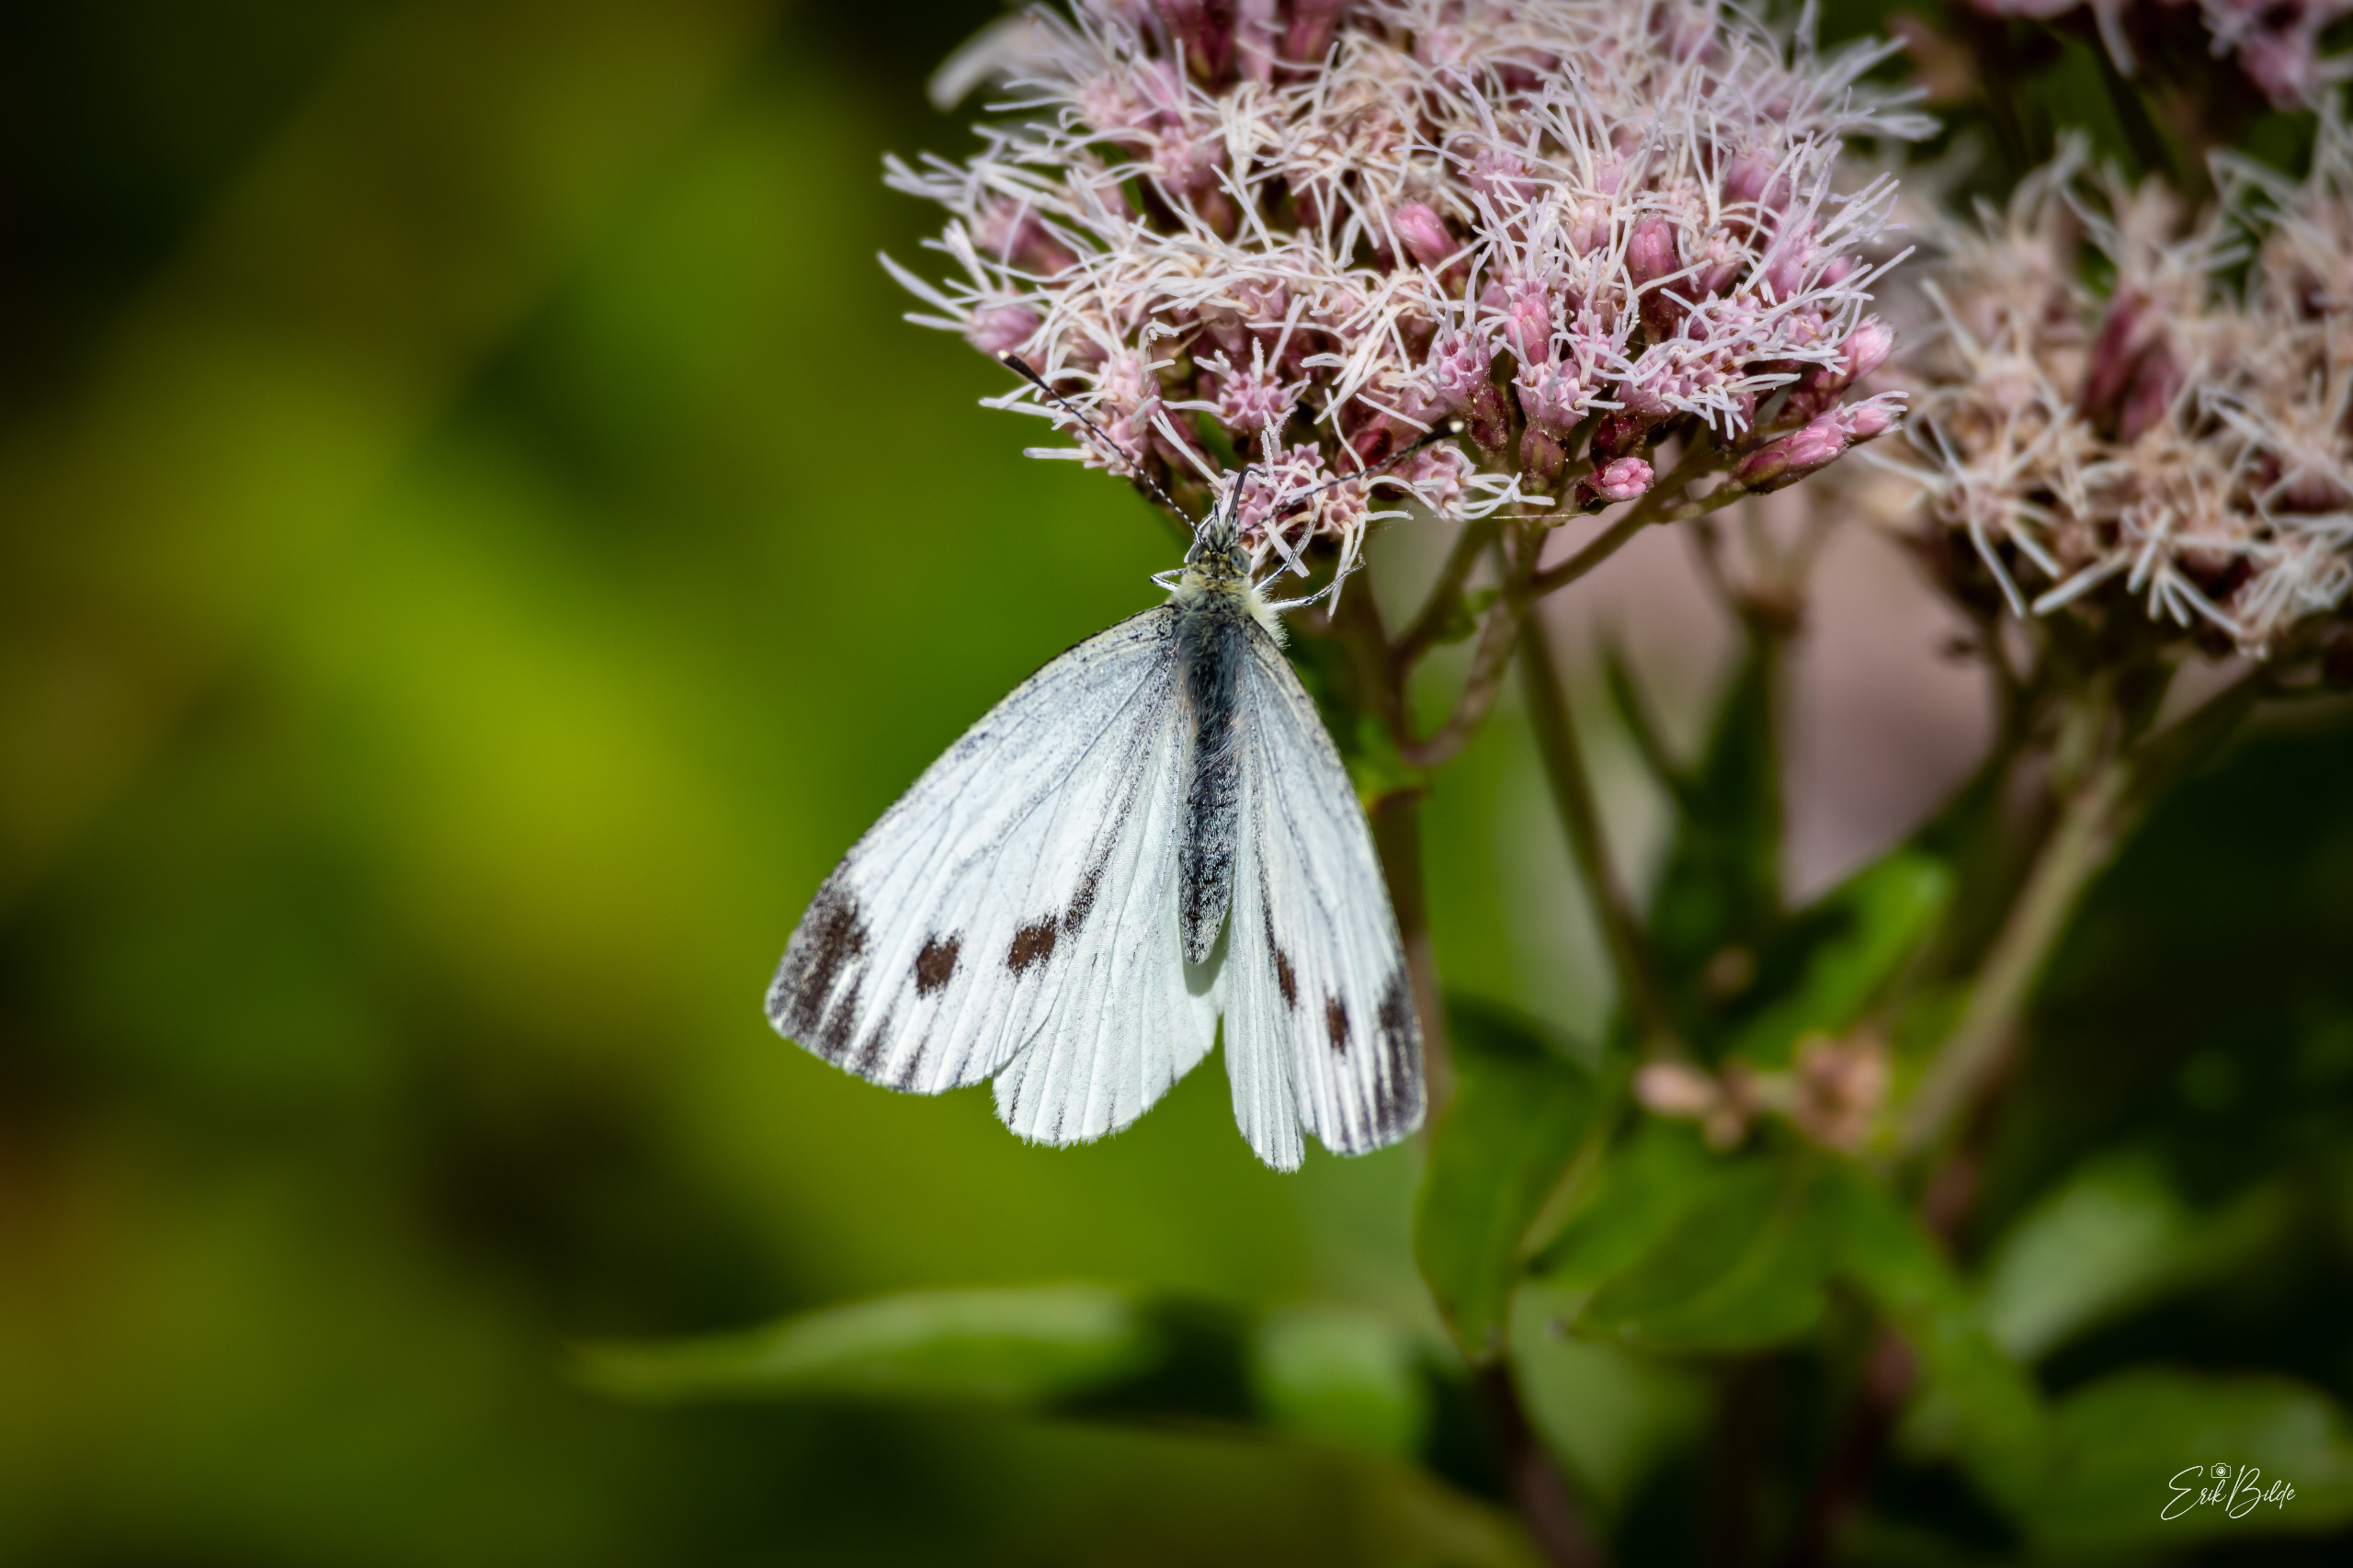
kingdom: Animalia
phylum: Arthropoda
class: Insecta
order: Lepidoptera
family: Pieridae
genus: Pieris
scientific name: Pieris napi
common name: Grønåret kålsommerfugl
